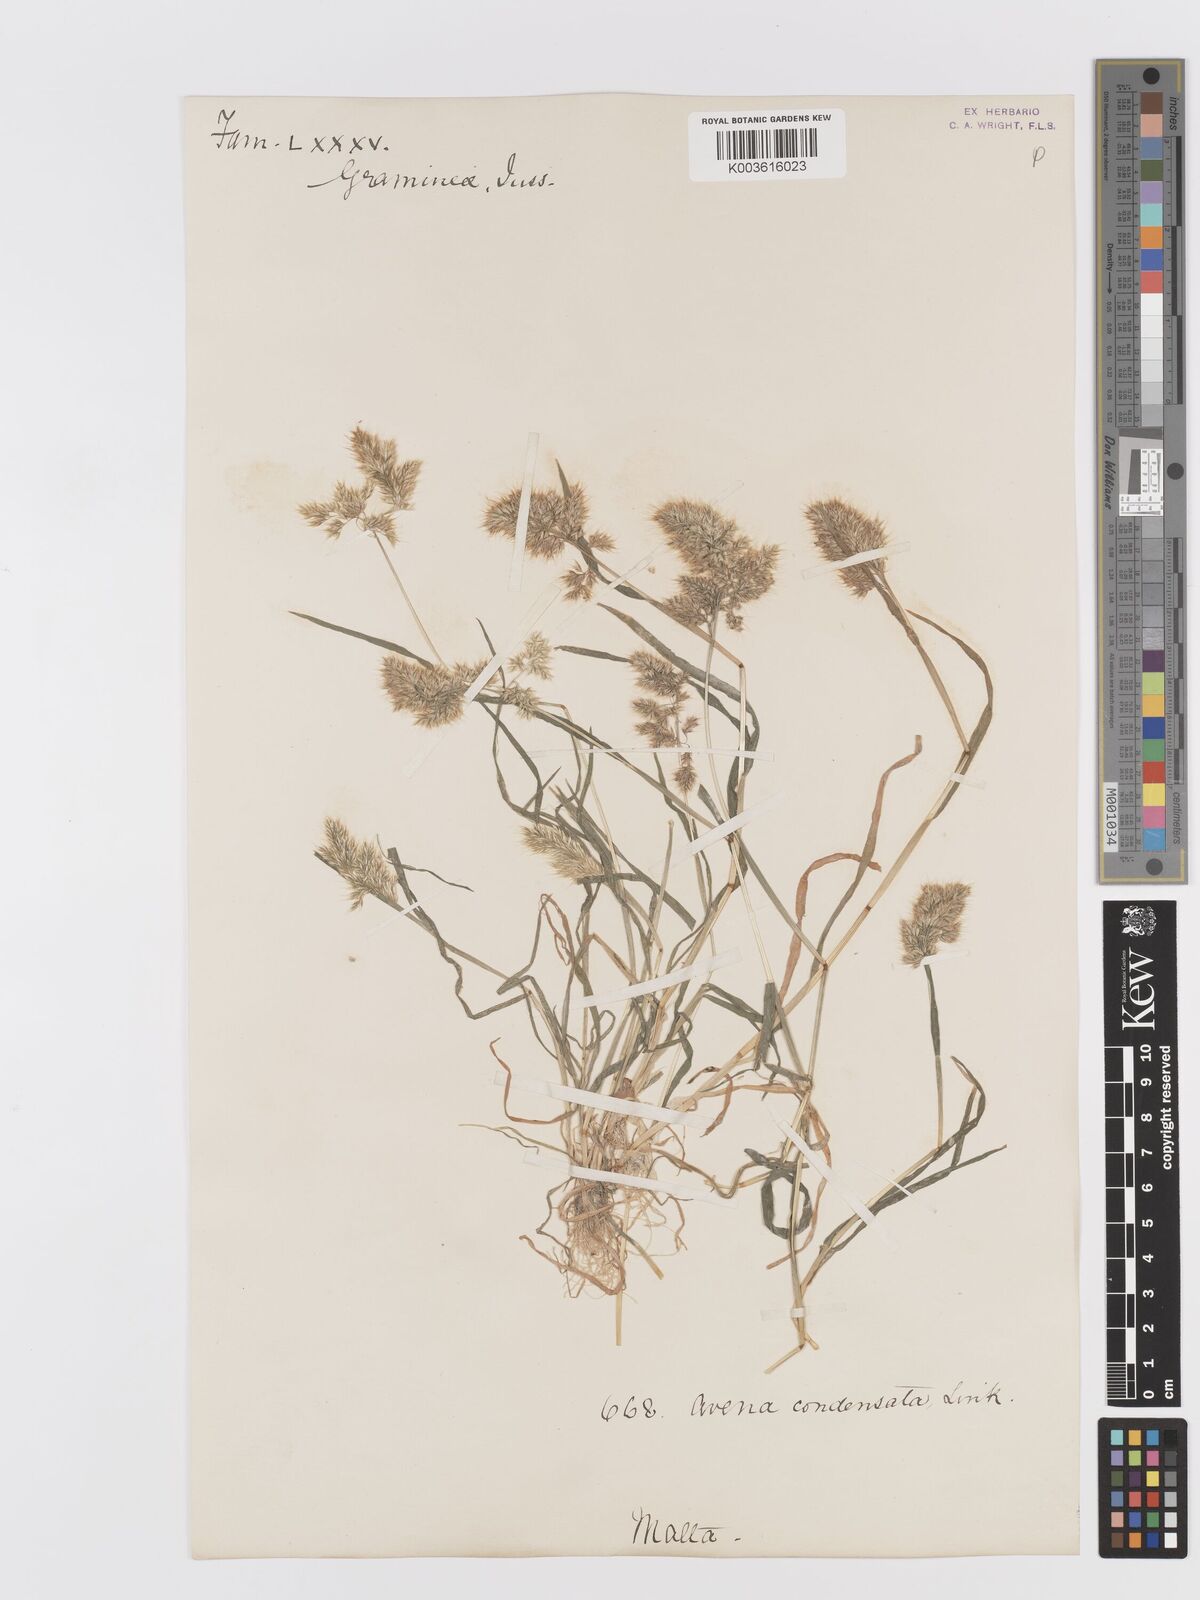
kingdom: Plantae
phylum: Tracheophyta
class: Liliopsida
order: Poales
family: Poaceae
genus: Trisetaria
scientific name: Trisetaria aurea
